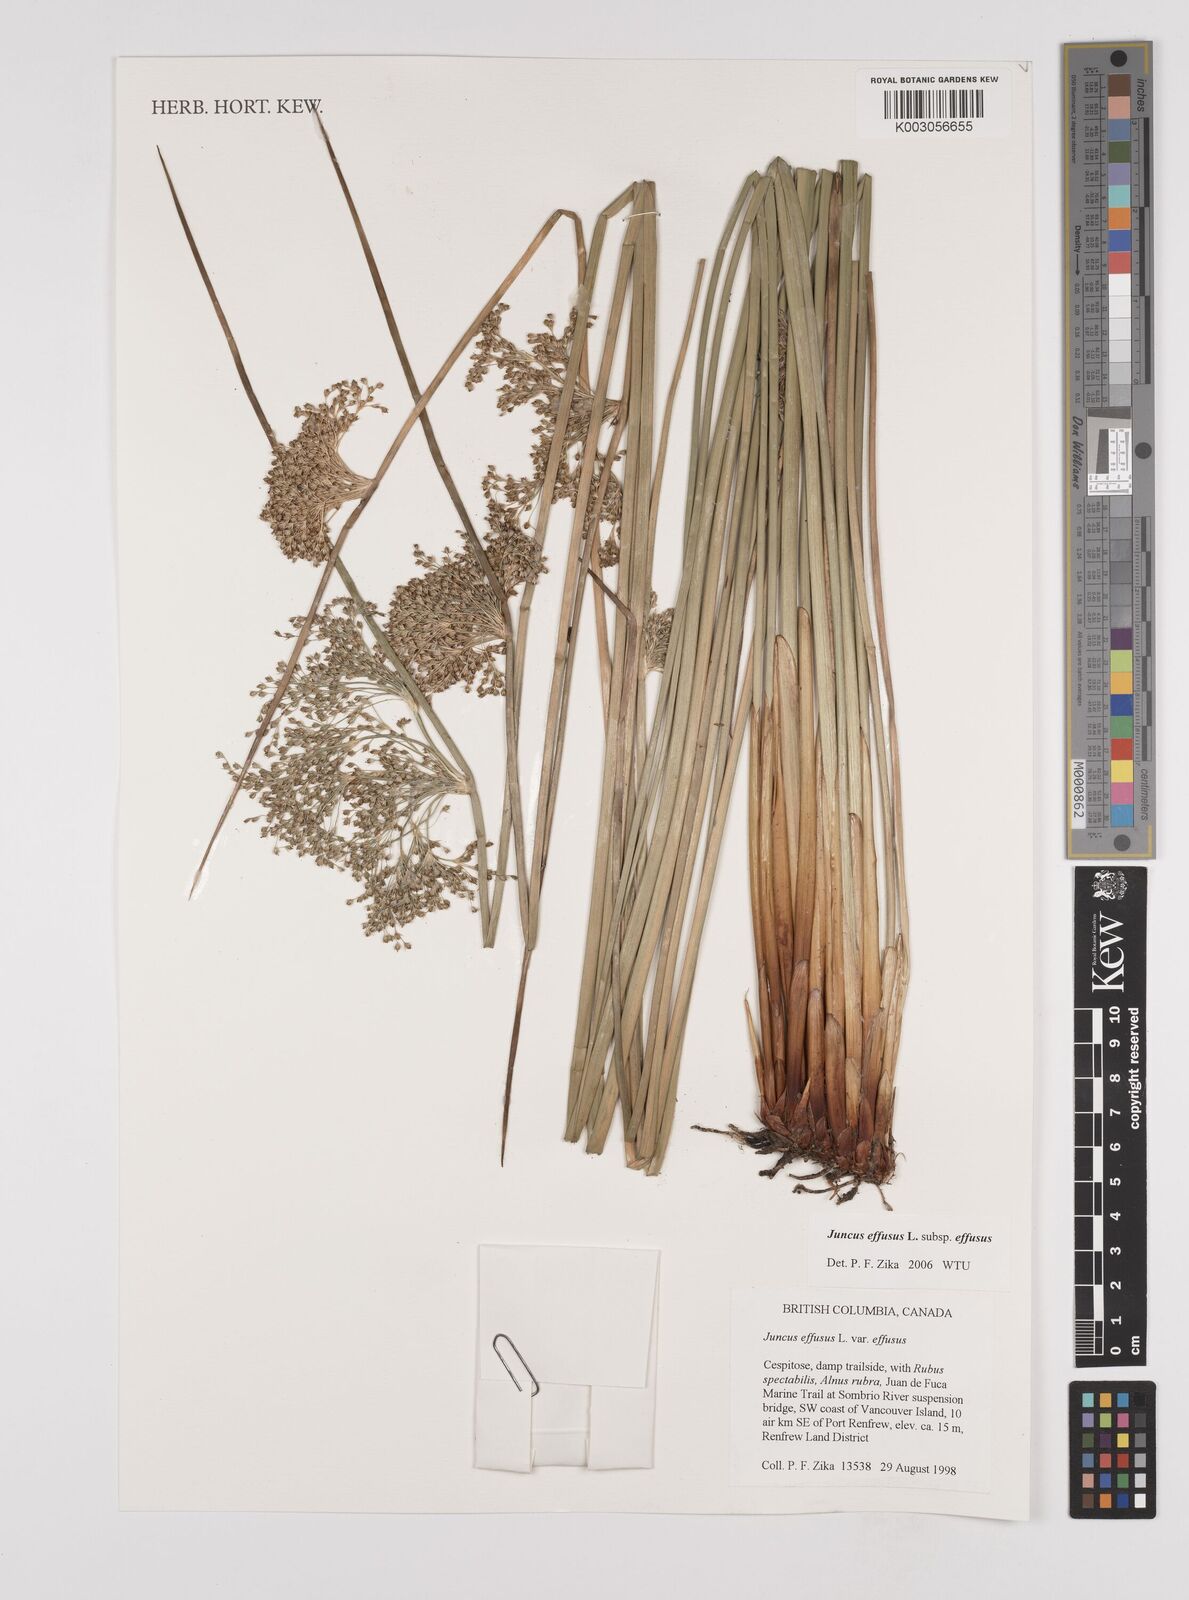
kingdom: Plantae
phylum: Tracheophyta
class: Liliopsida
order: Poales
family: Juncaceae
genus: Juncus
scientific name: Juncus effusus
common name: Soft rush
